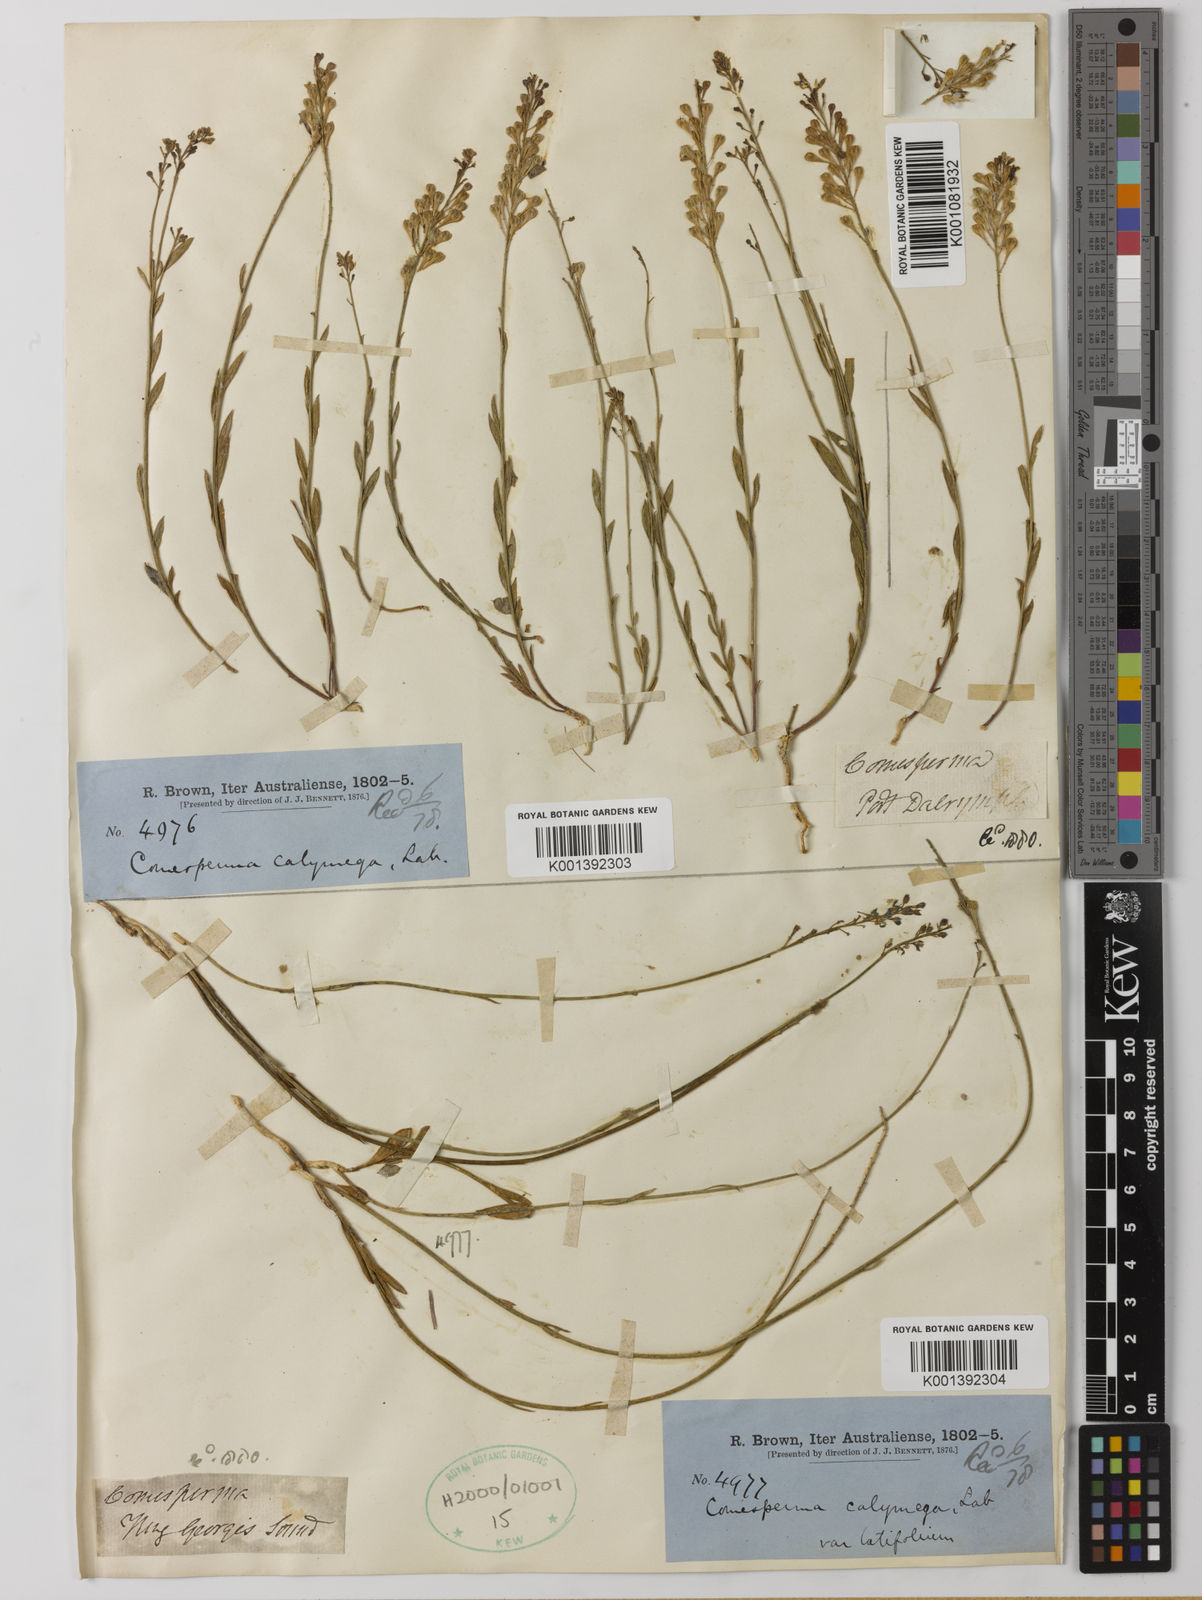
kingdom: Plantae
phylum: Tracheophyta
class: Magnoliopsida
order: Fabales
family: Polygalaceae
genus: Comesperma
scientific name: Comesperma calymega
